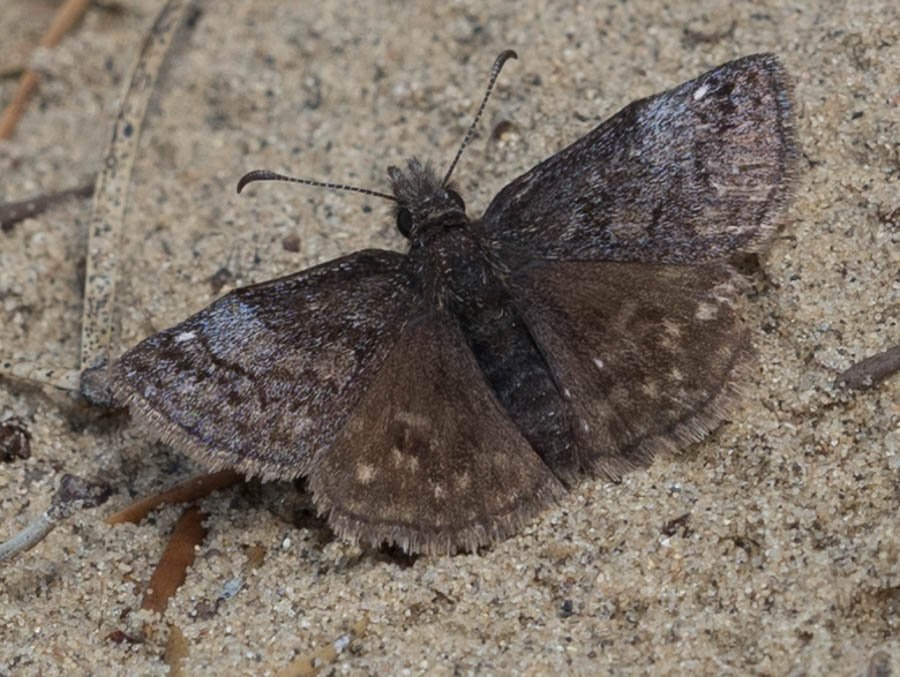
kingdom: Animalia
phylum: Arthropoda
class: Insecta
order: Lepidoptera
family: Hesperiidae
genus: Erynnis
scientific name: Erynnis icelus
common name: Dreamy Duskywing
